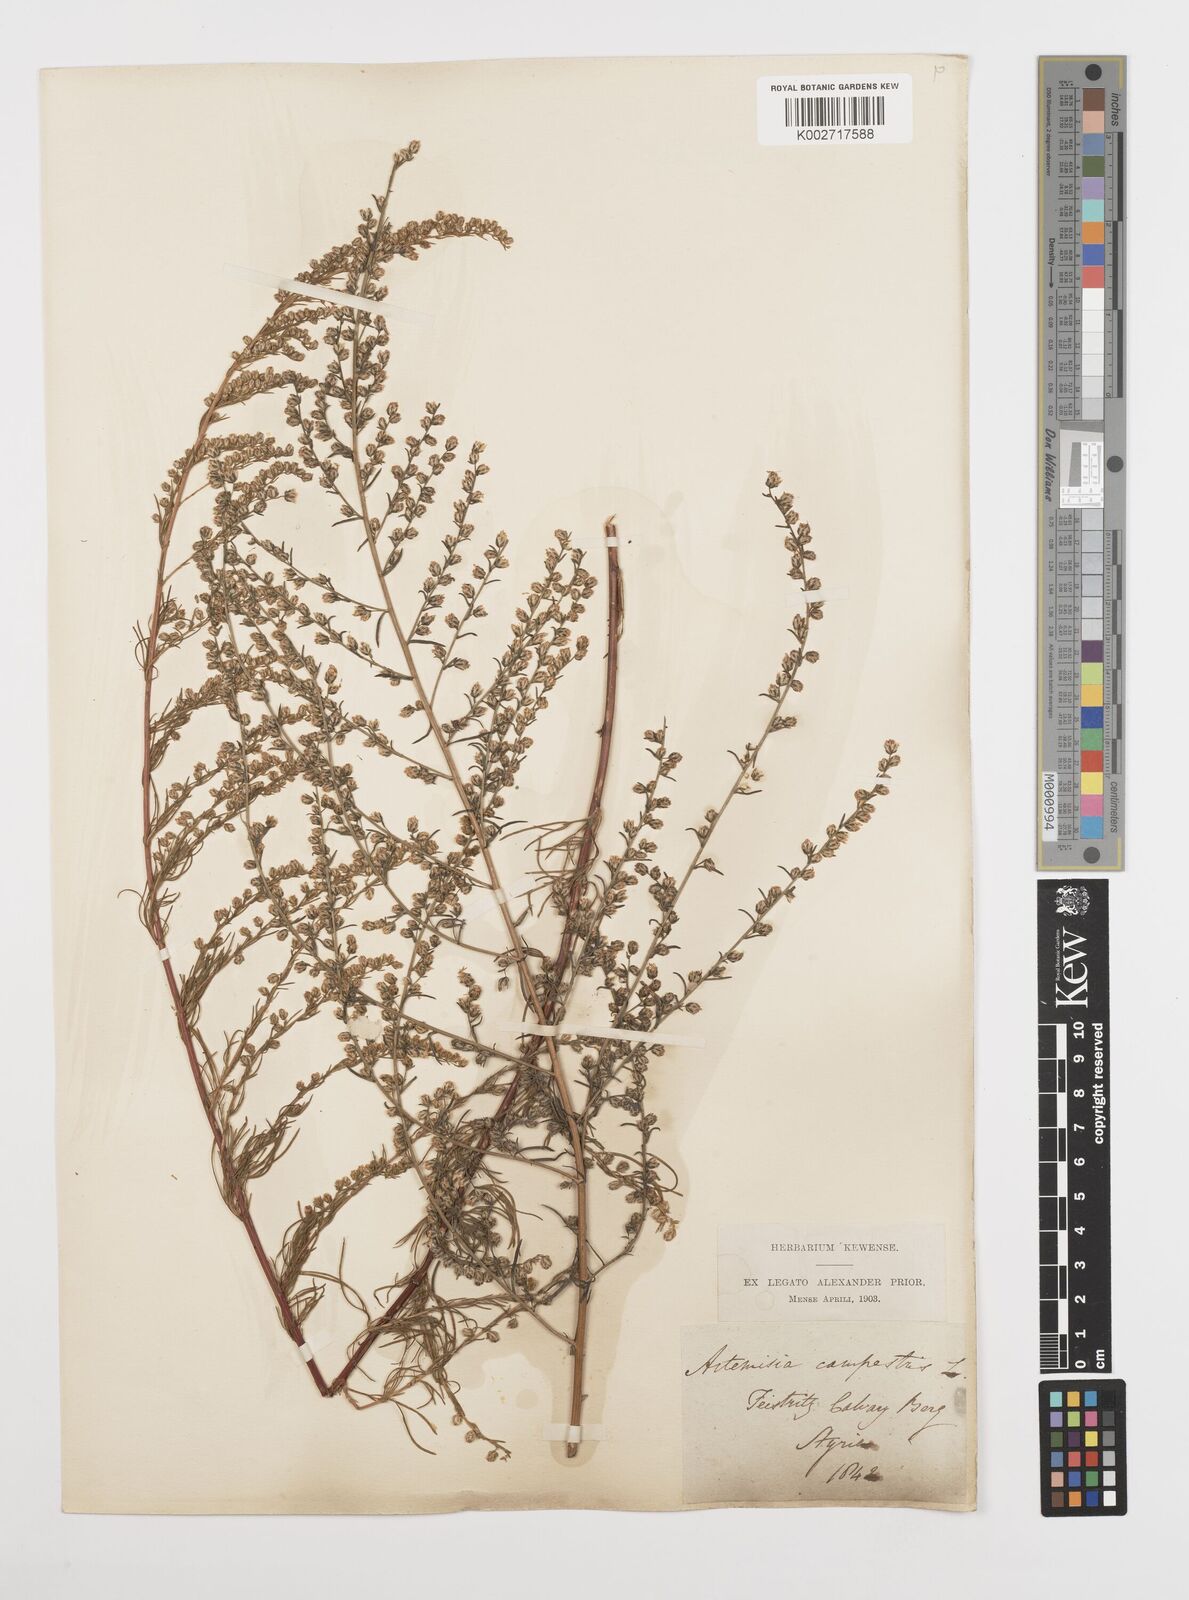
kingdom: Plantae
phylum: Tracheophyta
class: Magnoliopsida
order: Asterales
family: Asteraceae
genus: Artemisia
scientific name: Artemisia campestris
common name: Field wormwood
